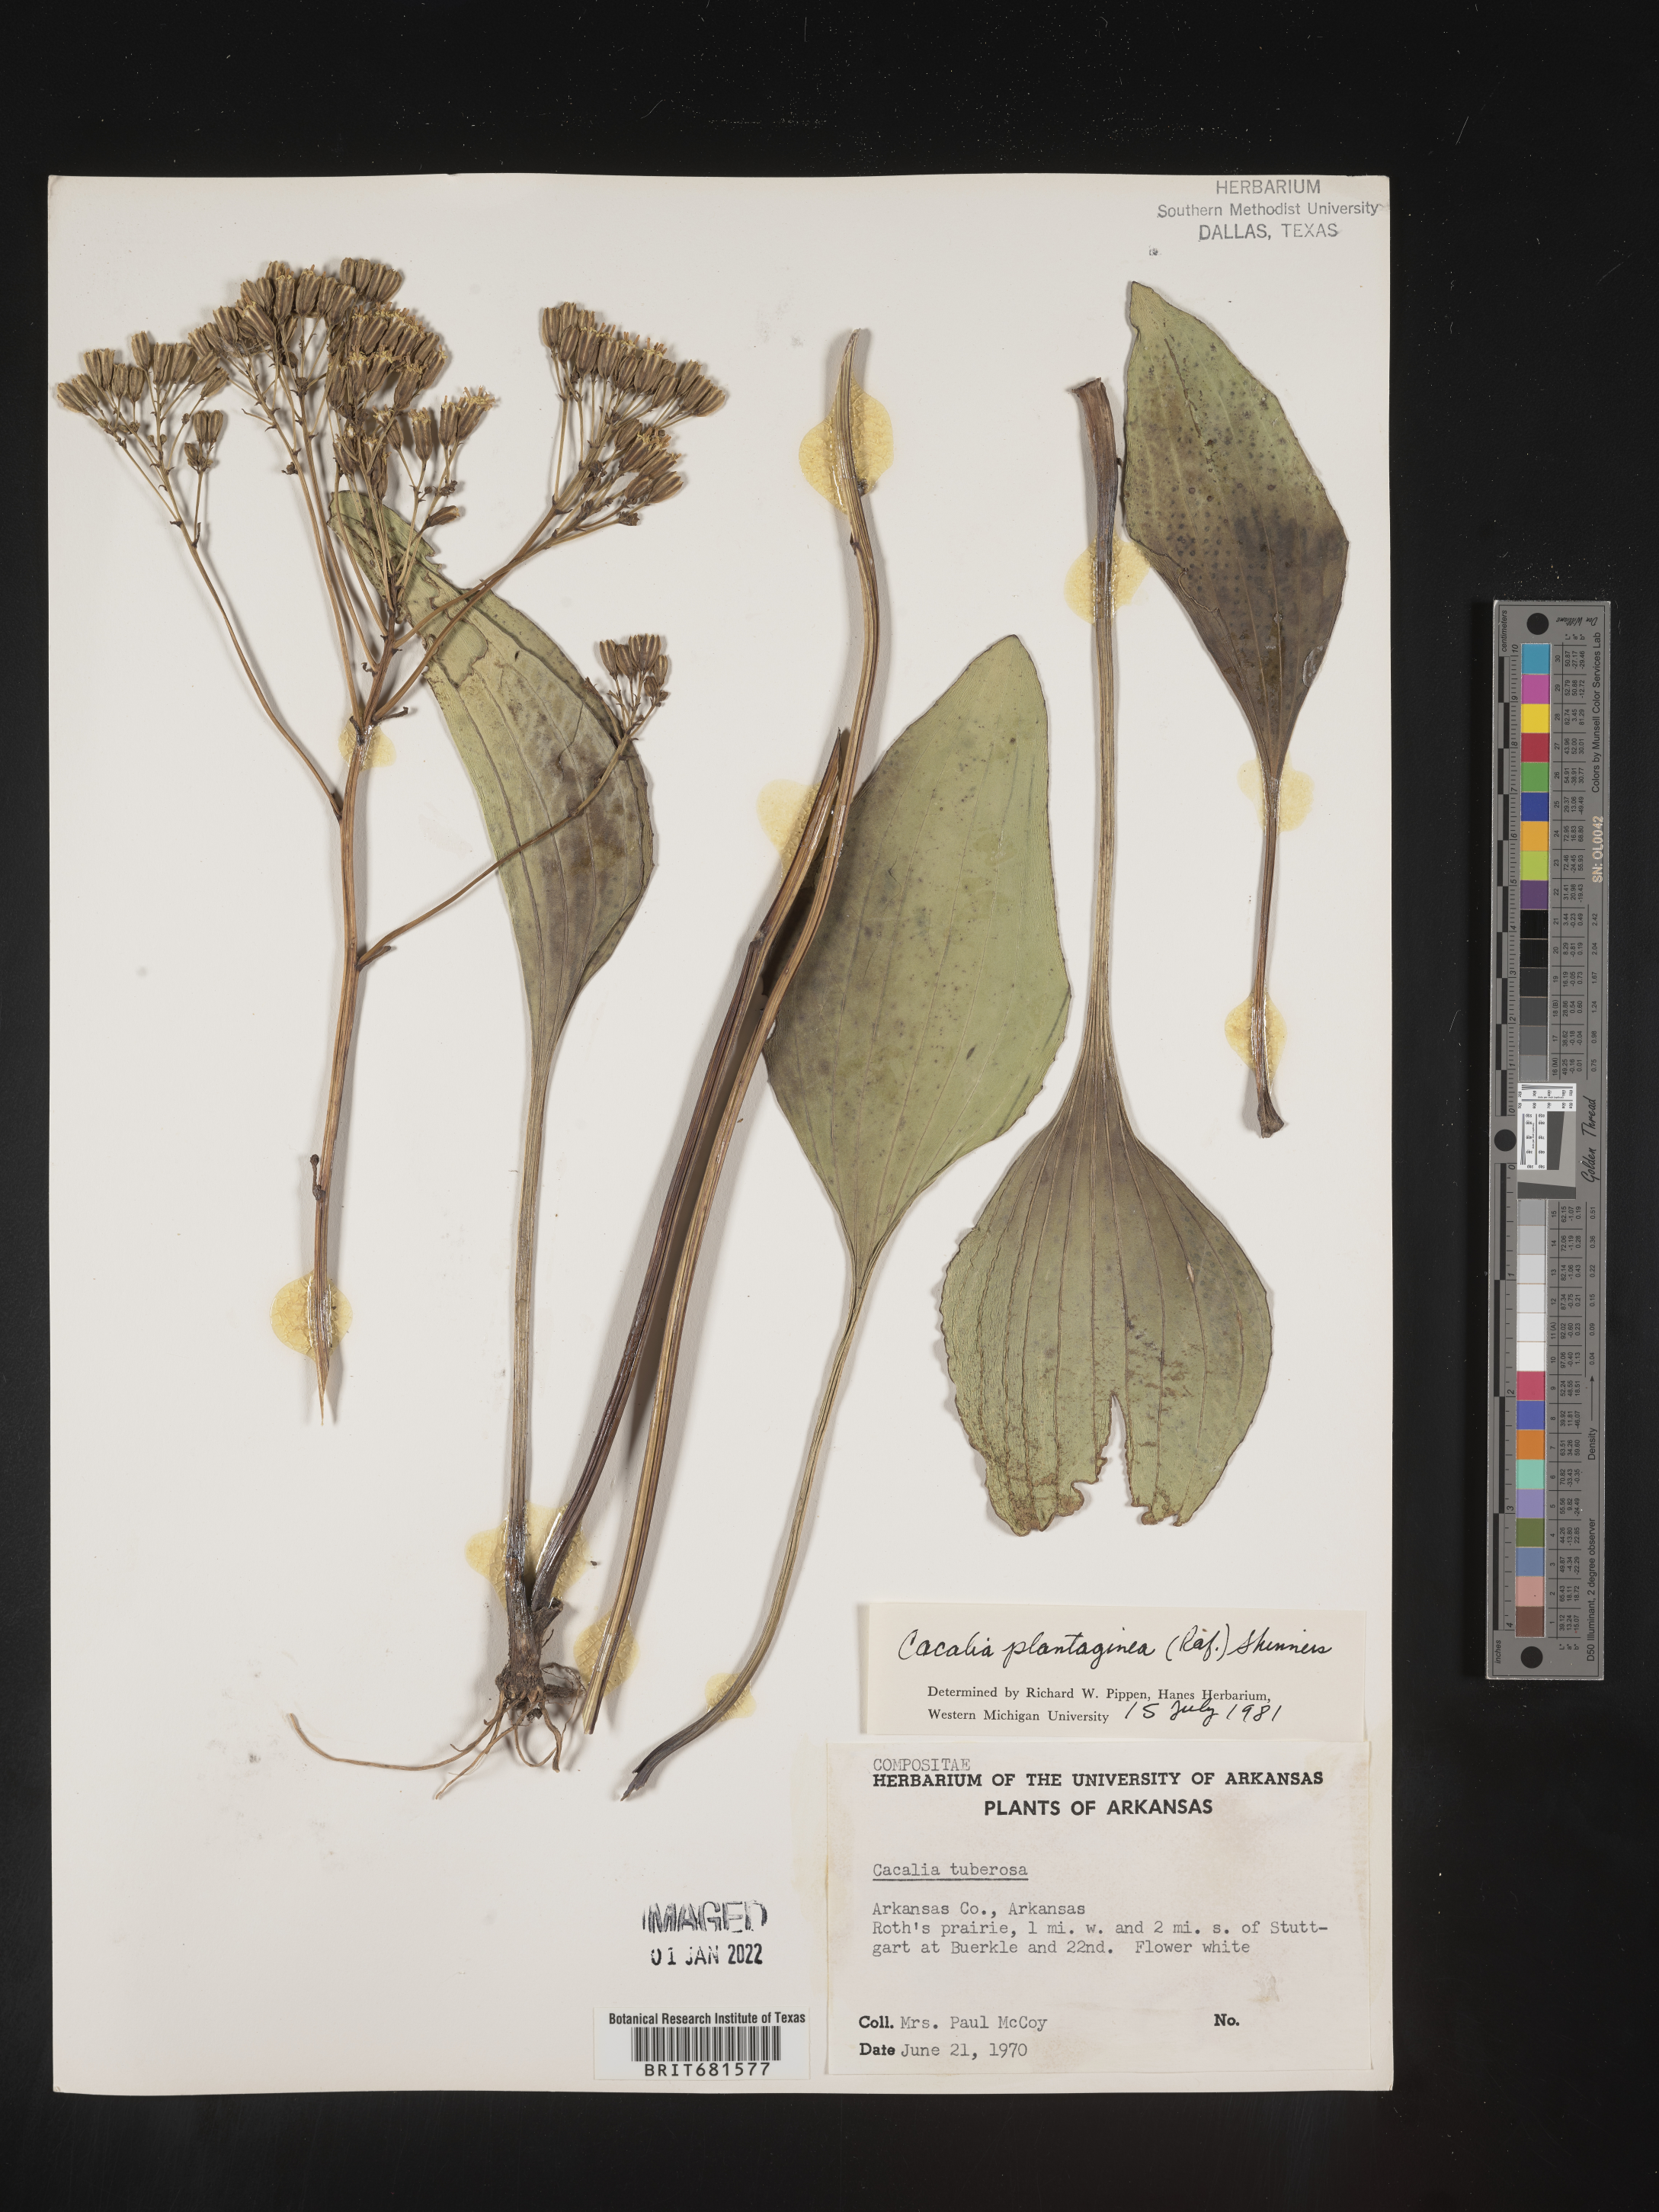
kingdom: Plantae
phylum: Tracheophyta
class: Magnoliopsida
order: Asterales
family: Asteraceae
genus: Arnoglossum
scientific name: Arnoglossum plantagineum
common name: Groove-stemmed indian-plantain
